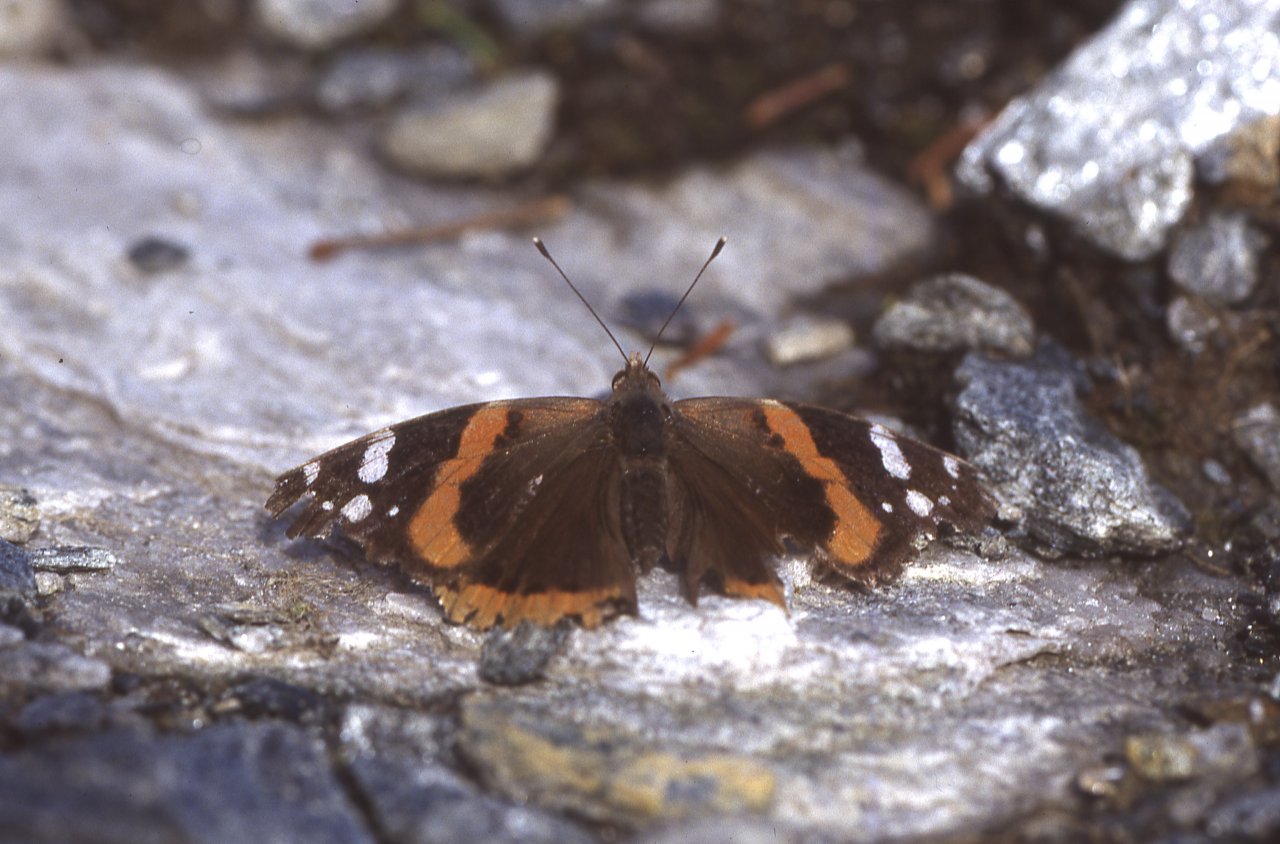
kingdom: Animalia
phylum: Arthropoda
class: Insecta
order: Lepidoptera
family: Nymphalidae
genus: Vanessa
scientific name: Vanessa atalanta
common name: Red Admiral
